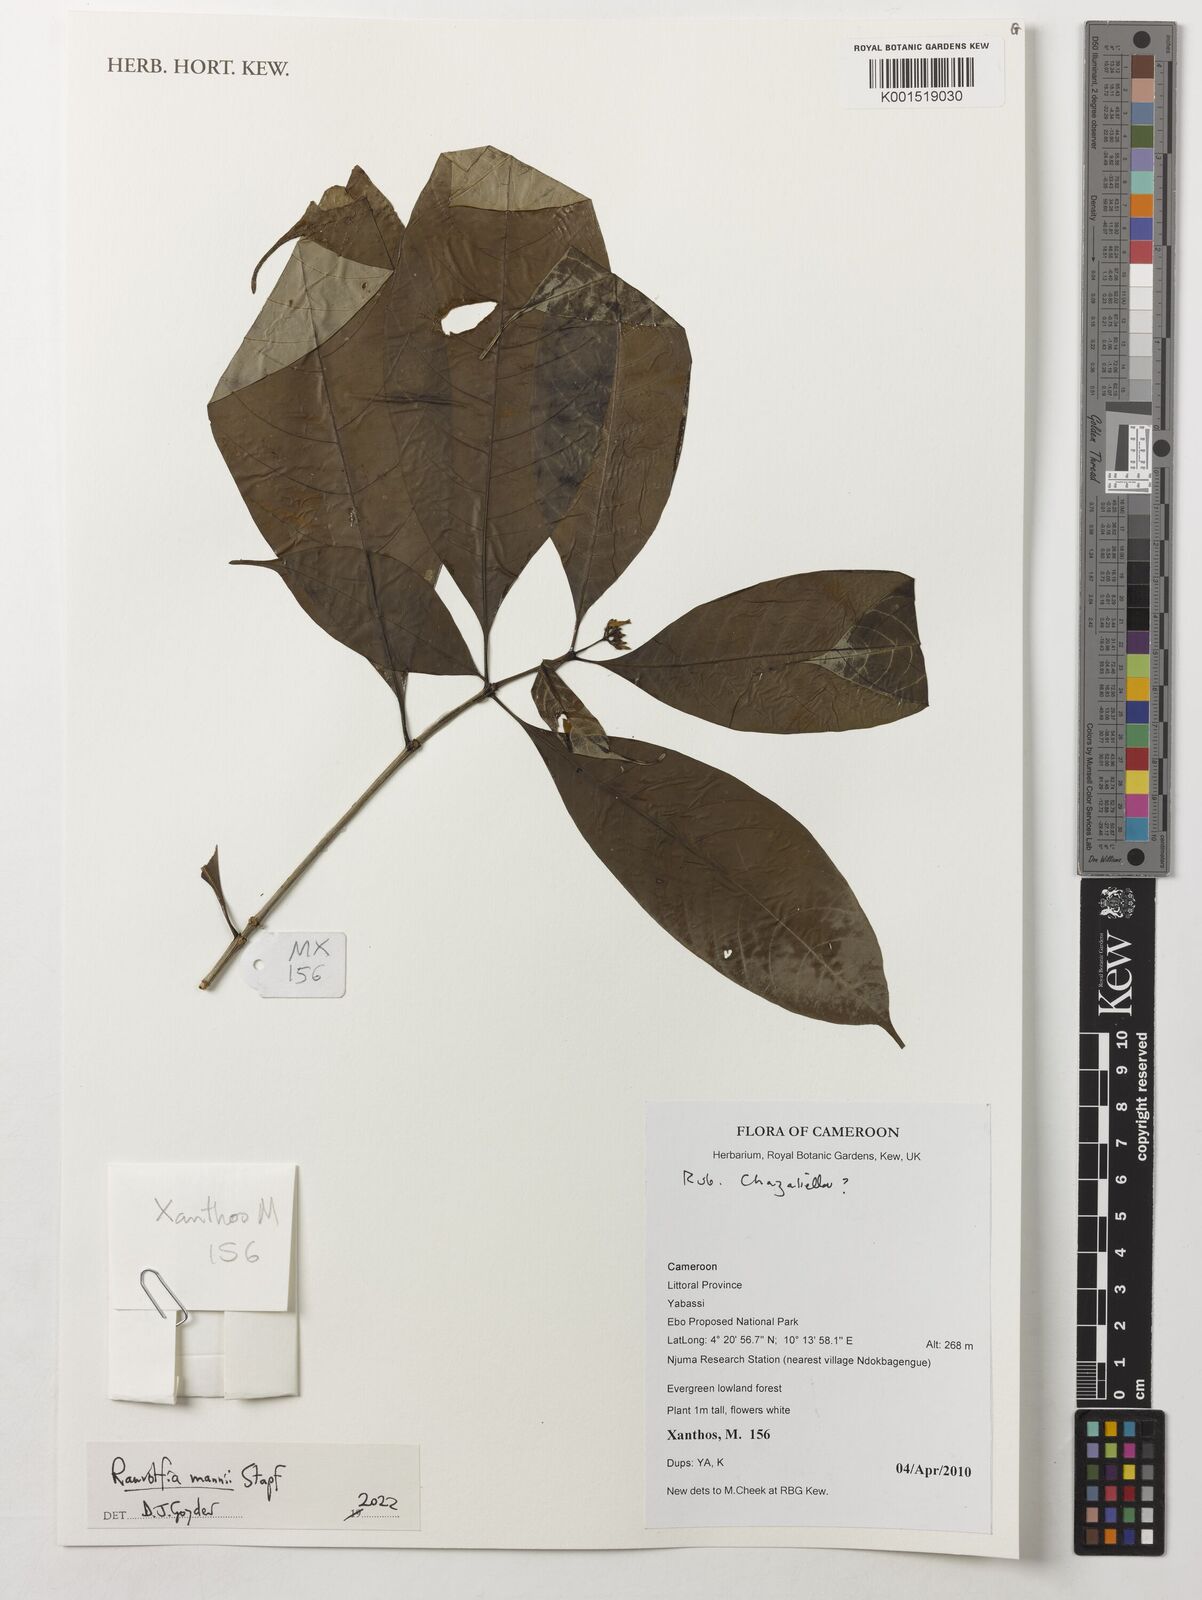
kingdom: Plantae
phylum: Tracheophyta
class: Magnoliopsida
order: Gentianales
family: Apocynaceae
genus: Rauvolfia
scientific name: Rauvolfia mannii
